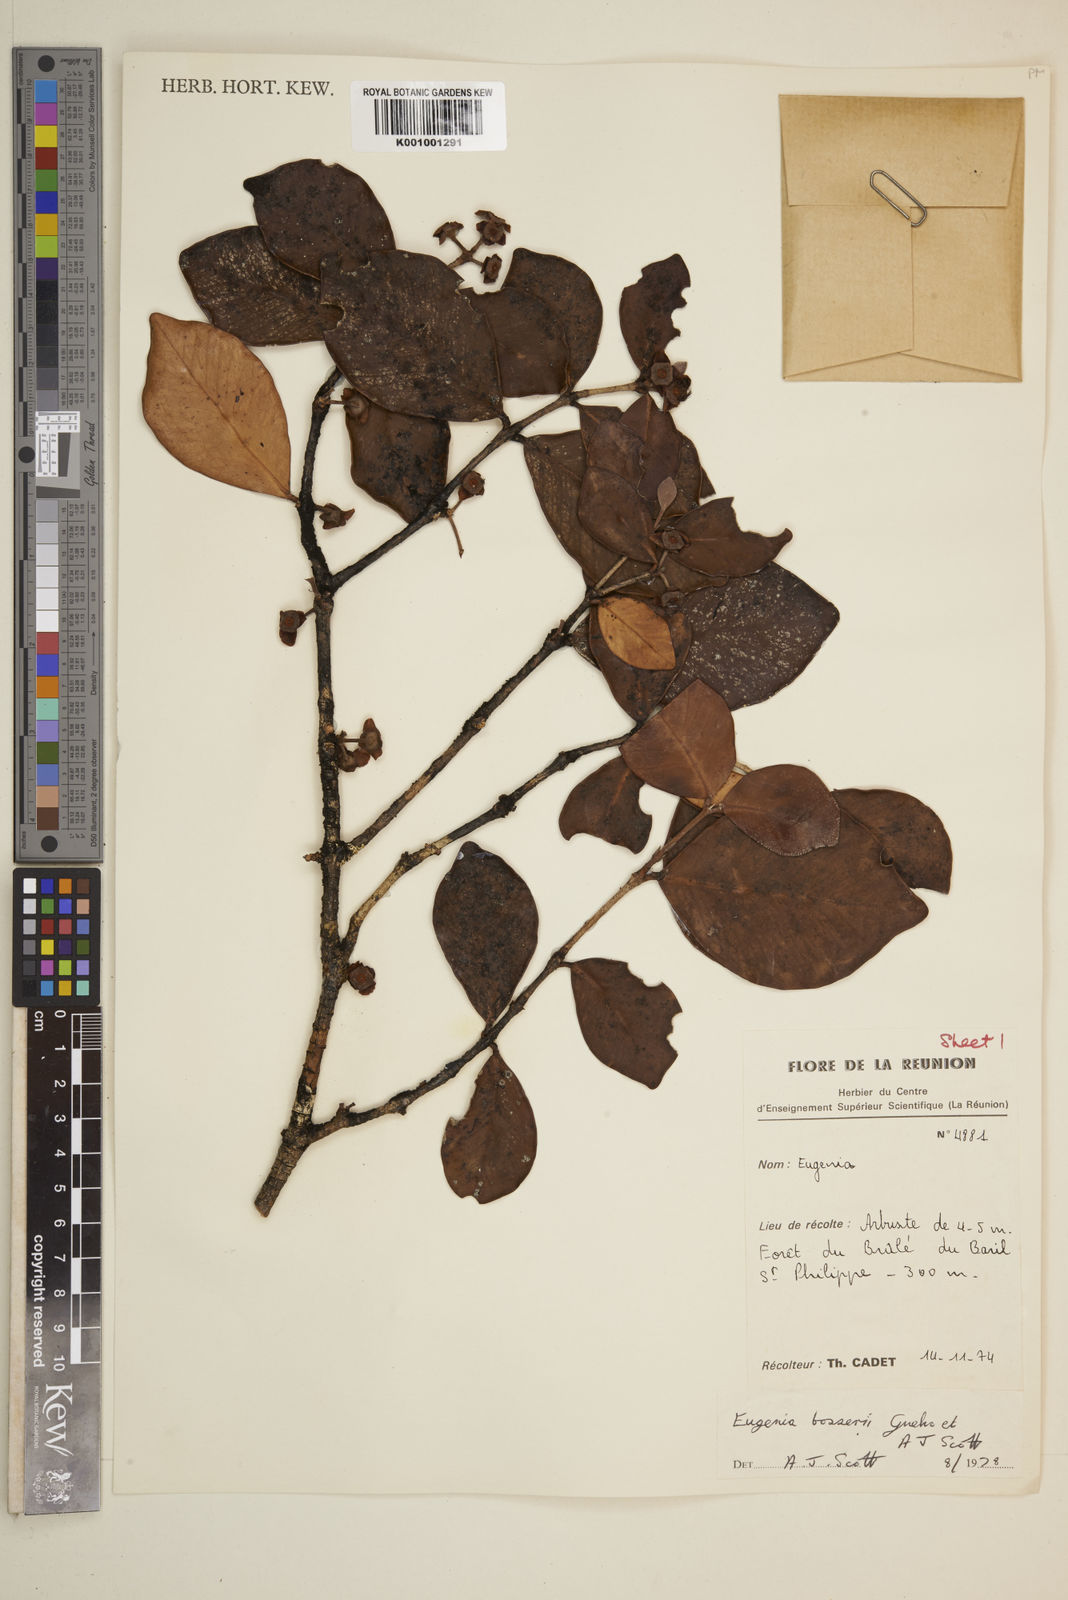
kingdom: Plantae
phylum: Tracheophyta
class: Magnoliopsida
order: Myrtales
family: Myrtaceae
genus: Eugenia
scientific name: Eugenia
